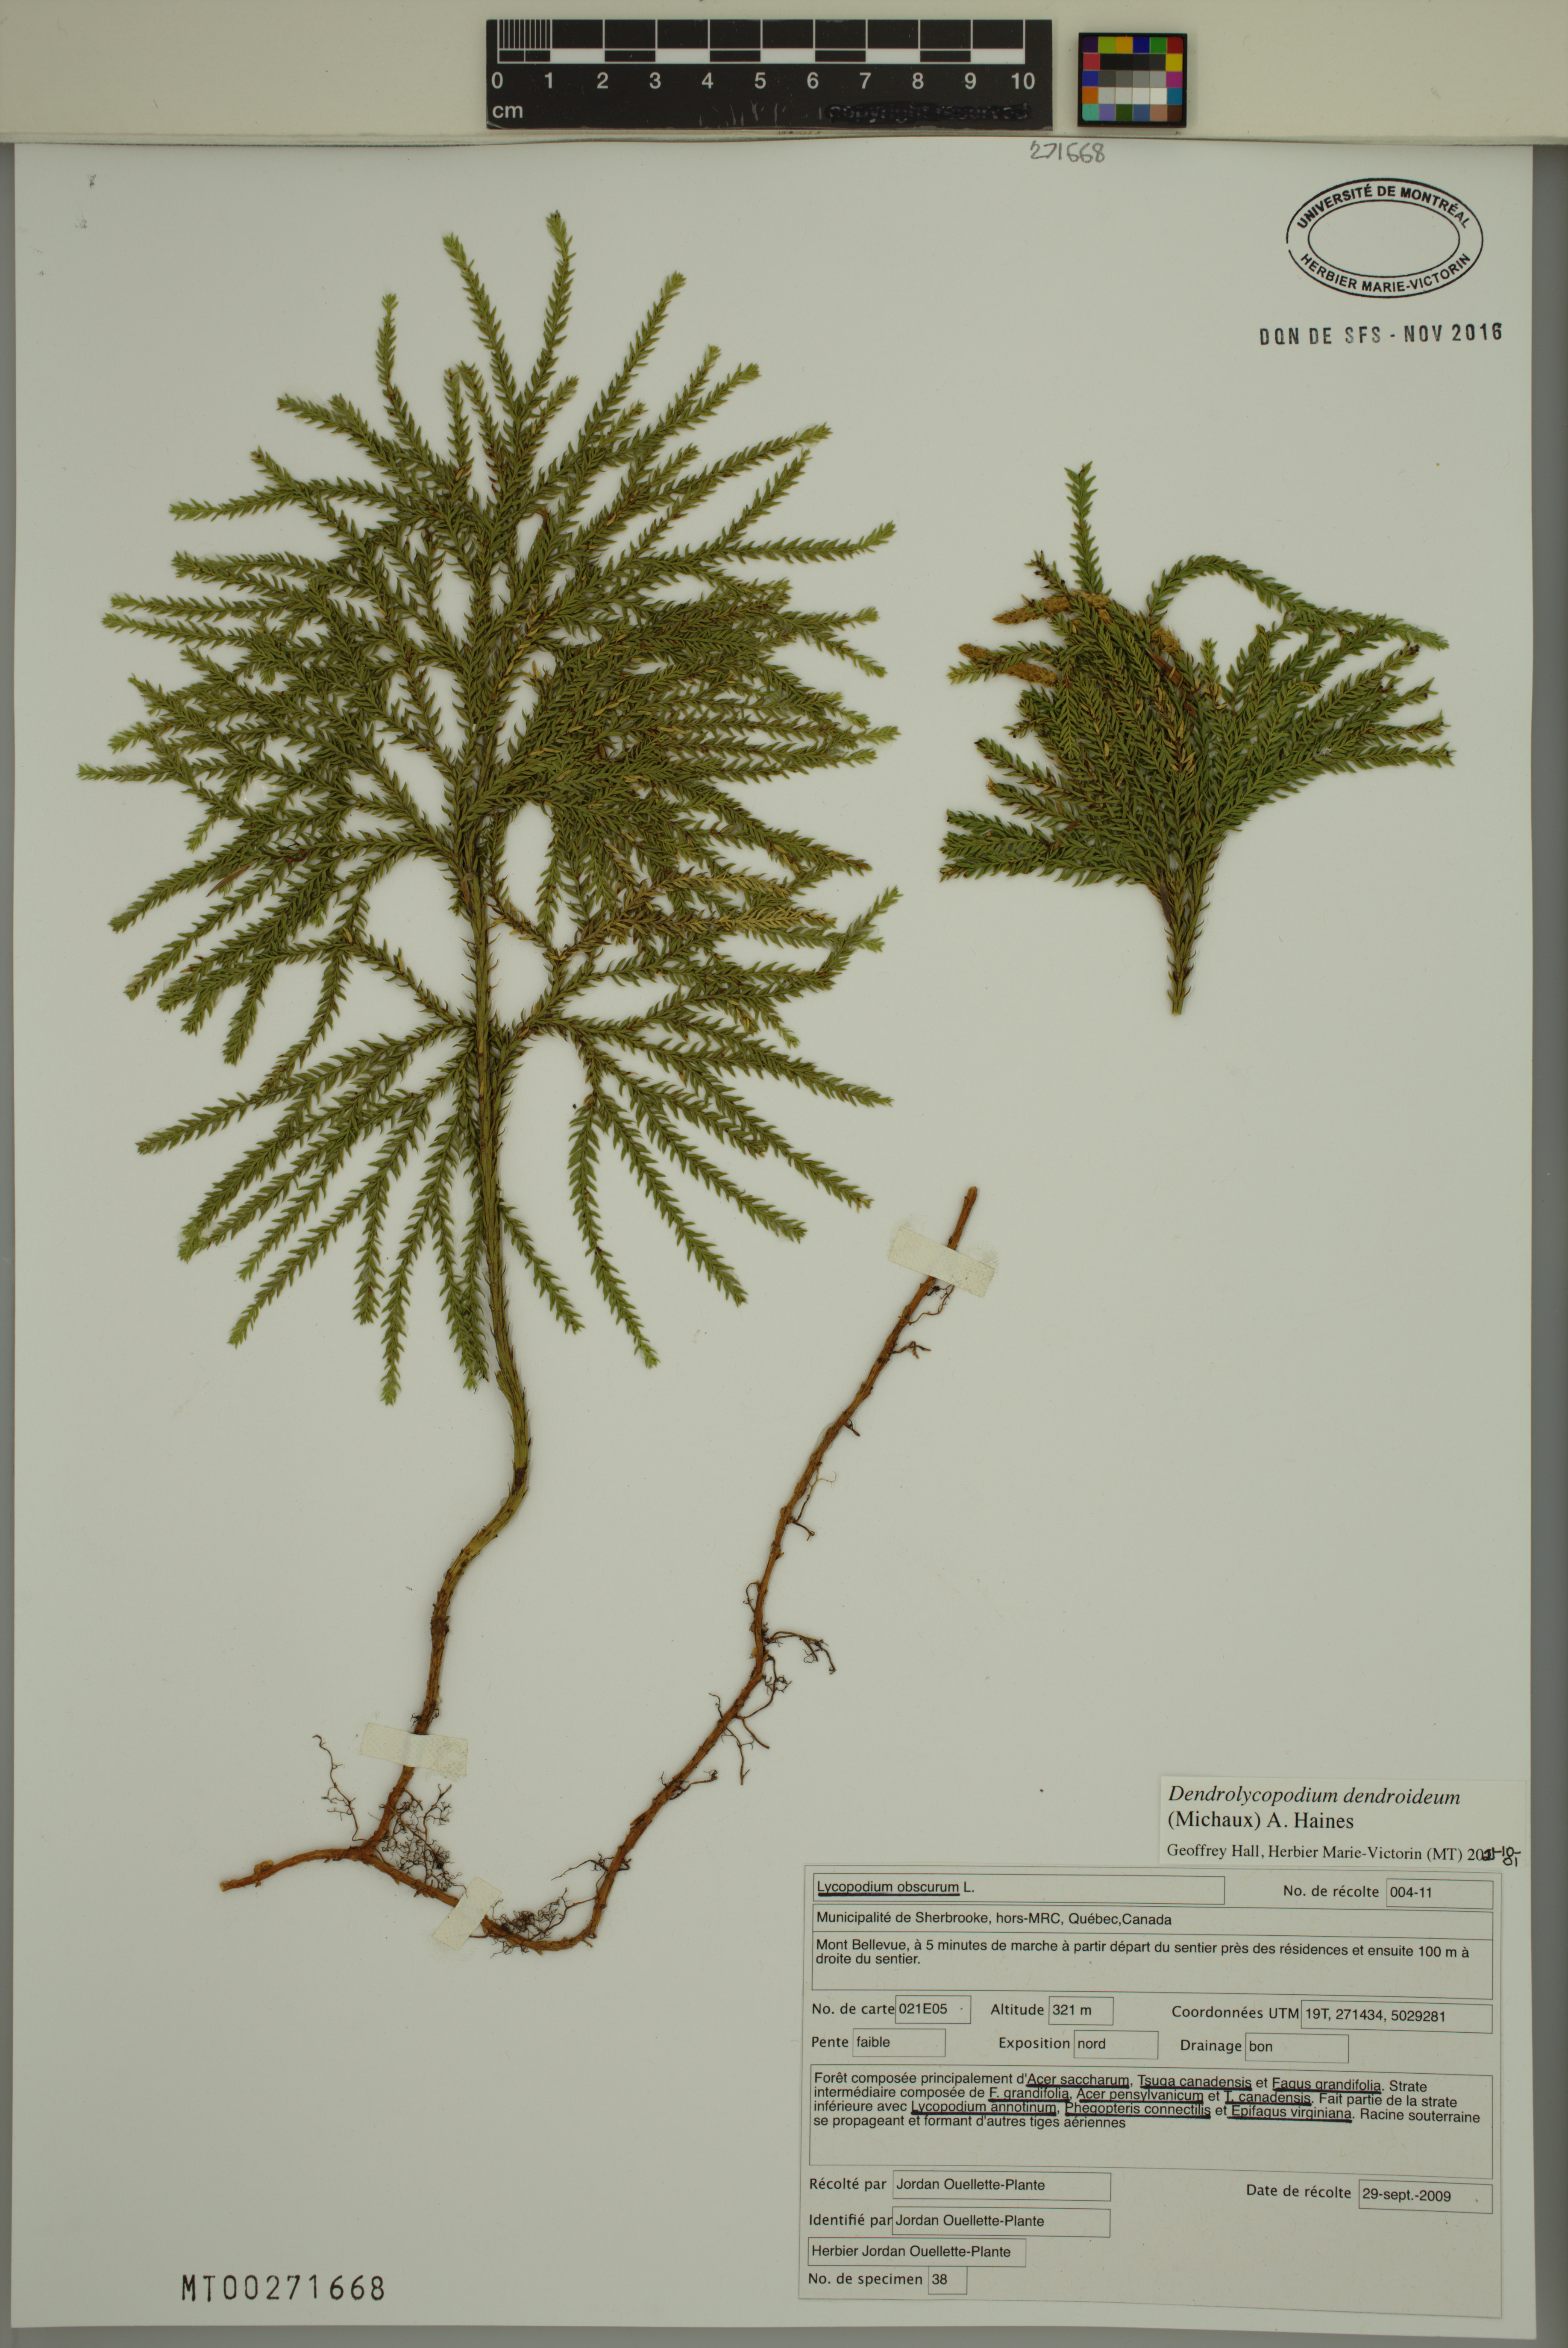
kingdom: Plantae
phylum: Tracheophyta
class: Lycopodiopsida
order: Lycopodiales
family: Lycopodiaceae
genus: Dendrolycopodium
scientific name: Dendrolycopodium dendroideum
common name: Northern tree-clubmoss
